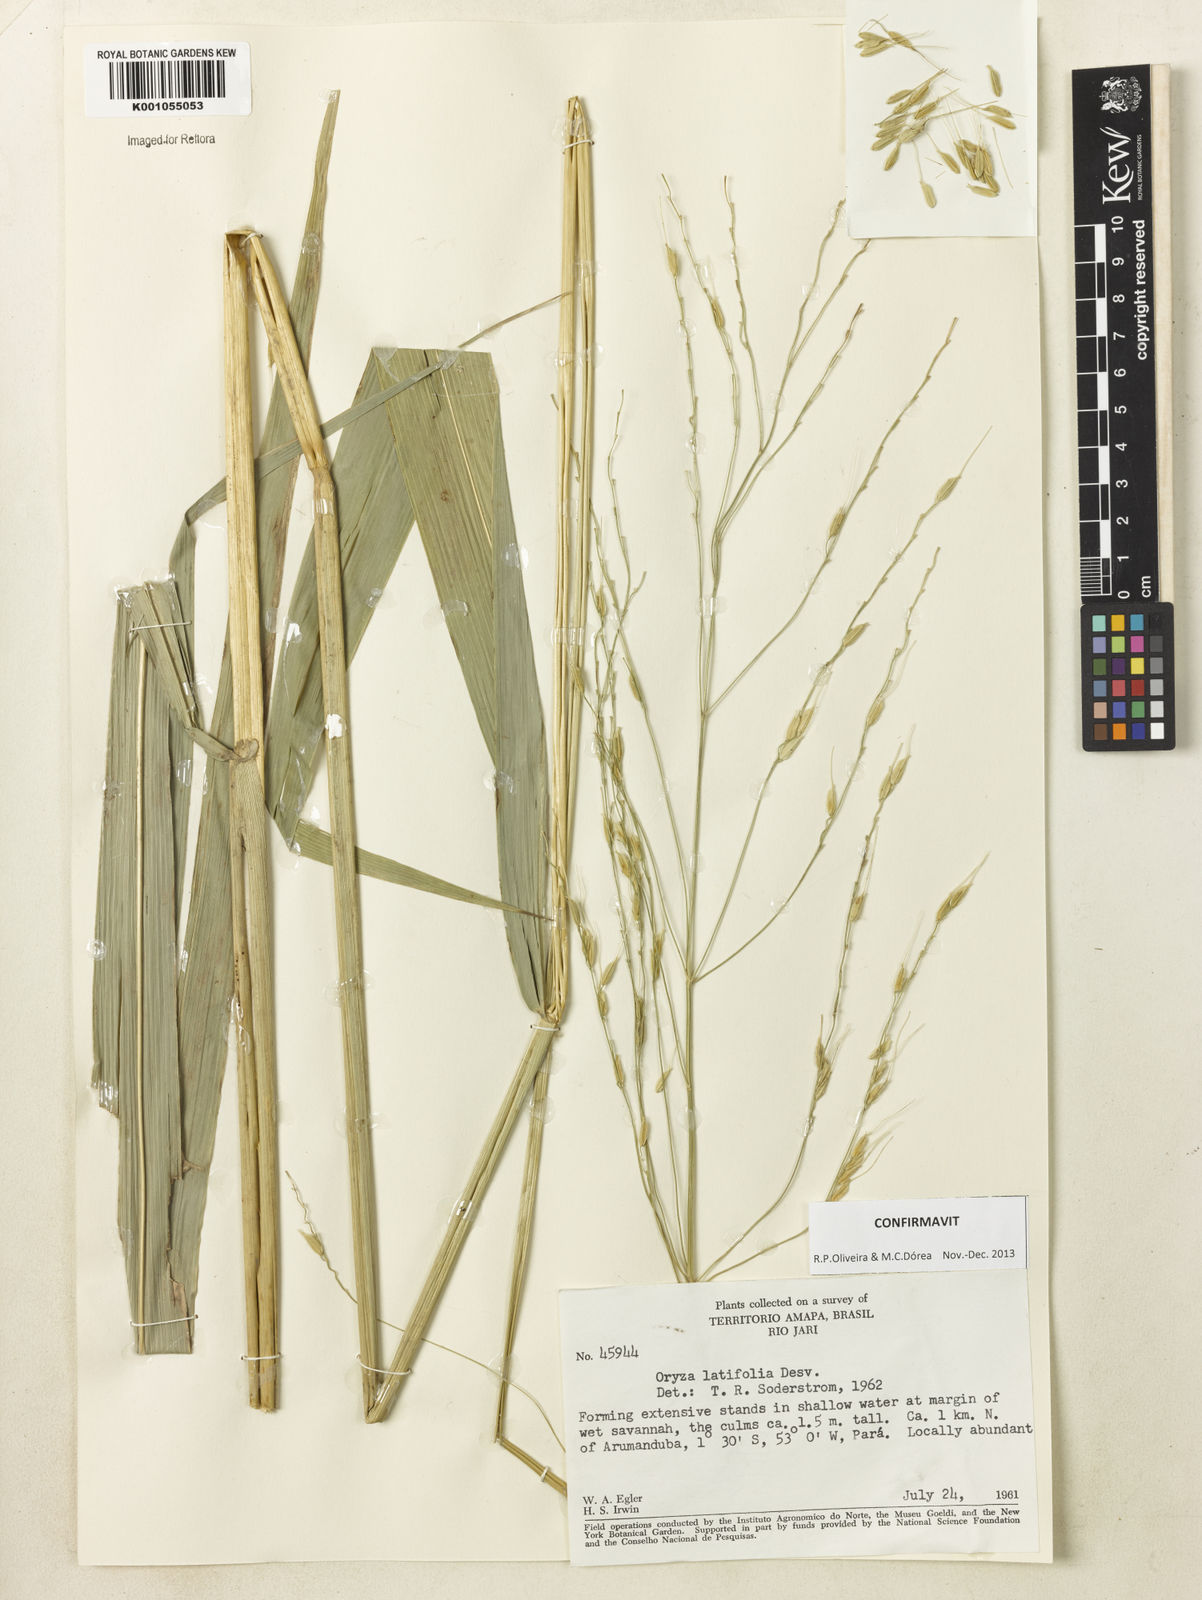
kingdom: Plantae
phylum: Tracheophyta
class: Liliopsida
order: Poales
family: Poaceae
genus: Oryza
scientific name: Oryza latifolia
